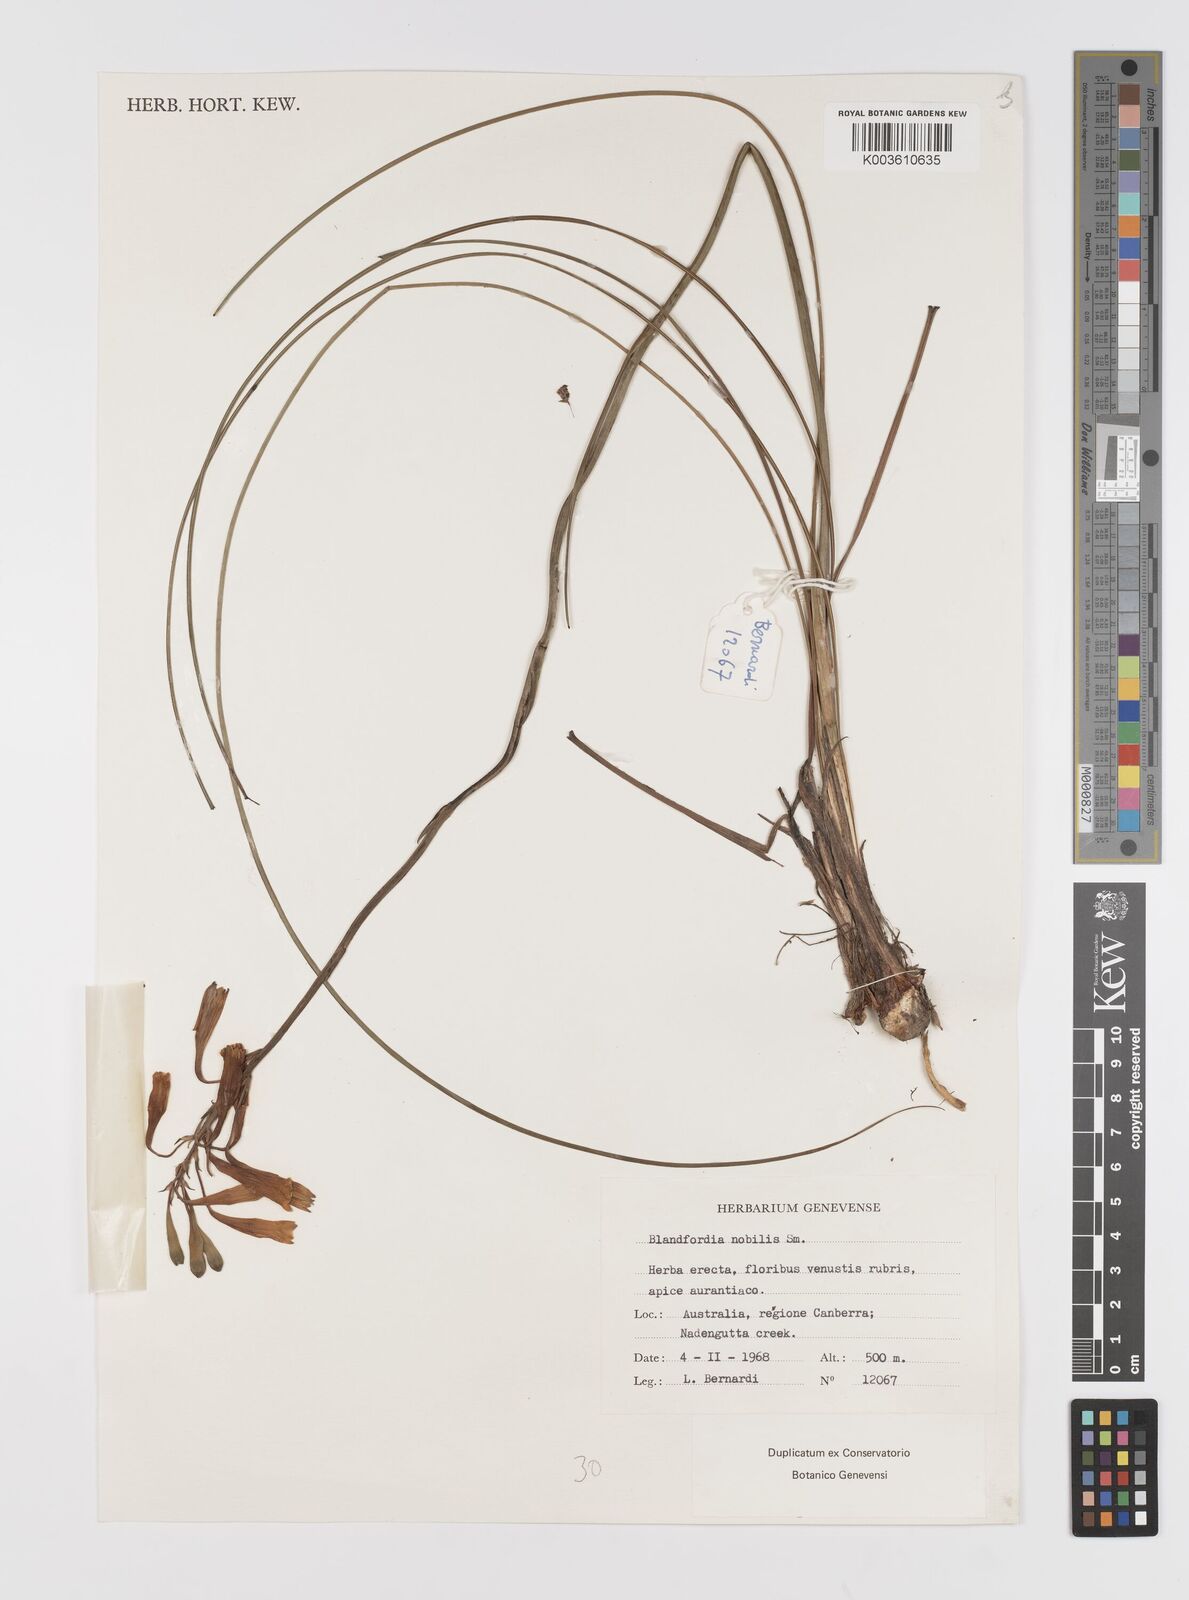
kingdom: Plantae
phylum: Tracheophyta
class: Liliopsida
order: Asparagales
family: Blandfordiaceae
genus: Blandfordia
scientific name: Blandfordia nobilis
